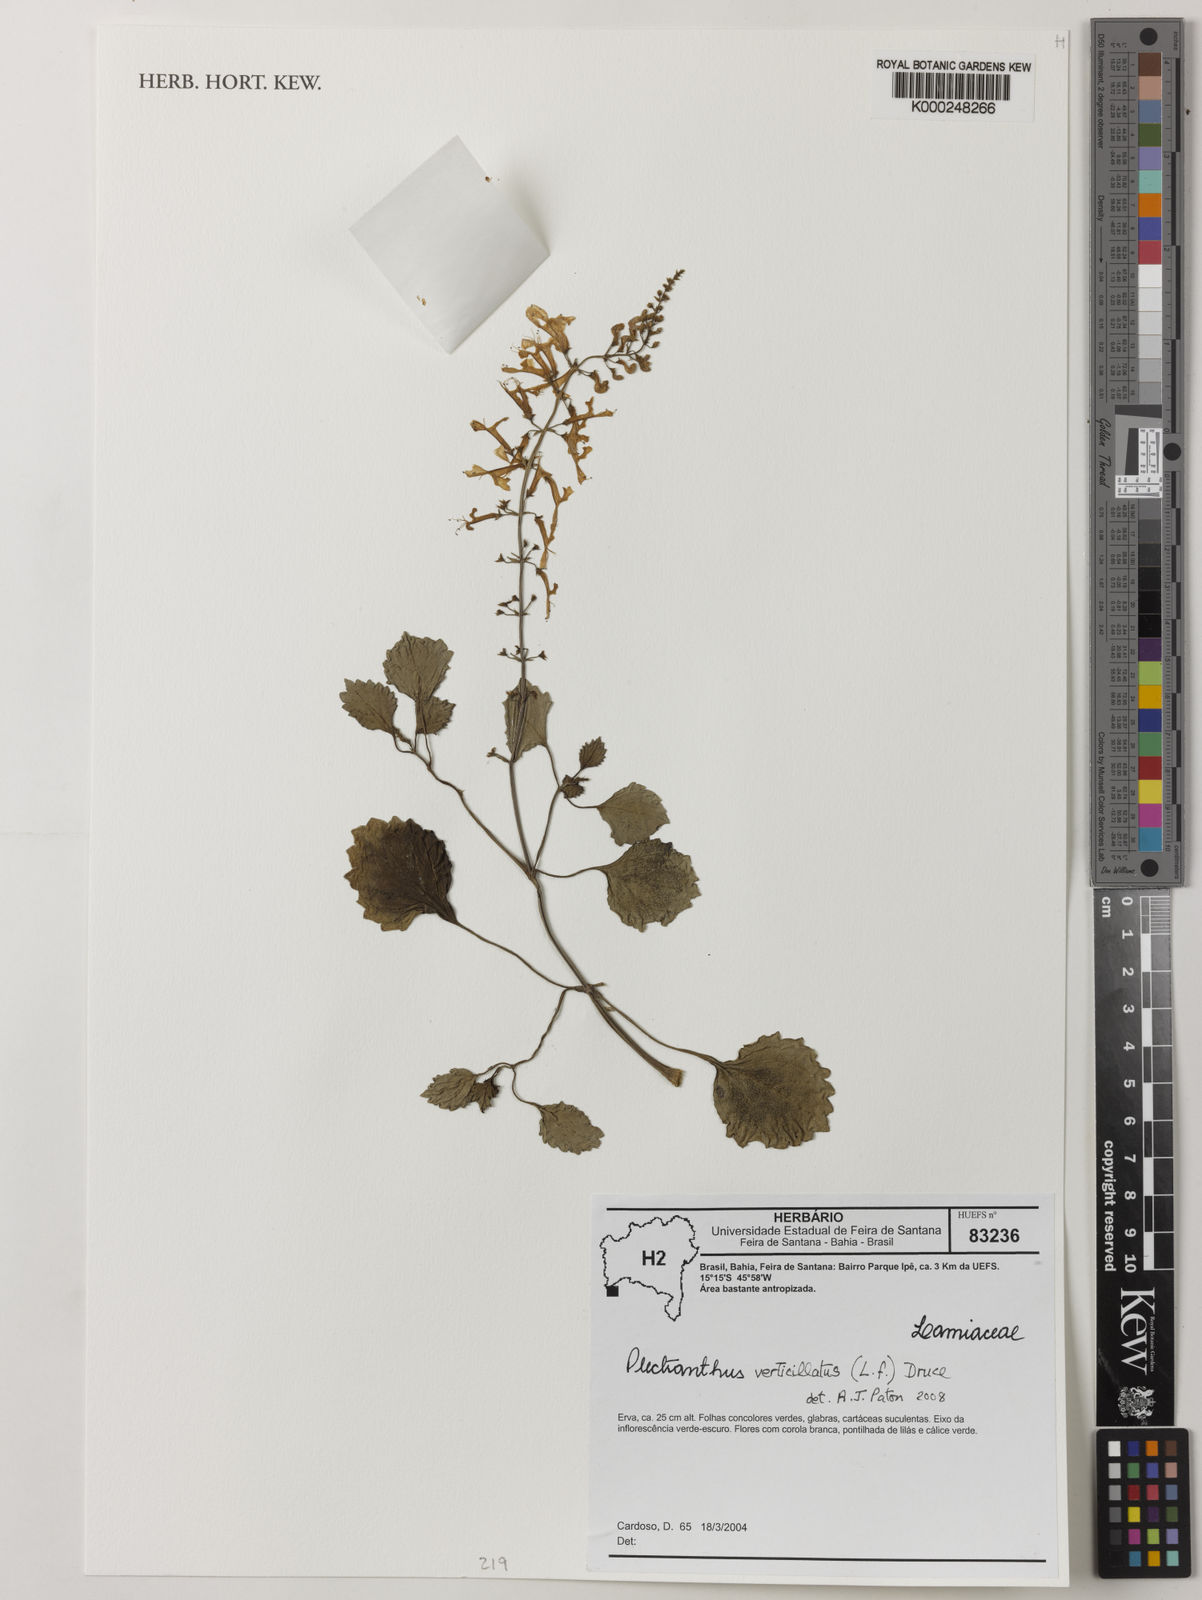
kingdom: Plantae
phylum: Tracheophyta
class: Magnoliopsida
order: Lamiales
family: Lamiaceae
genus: Plectranthus
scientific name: Plectranthus verticillatus
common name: Whorled plectranthus
